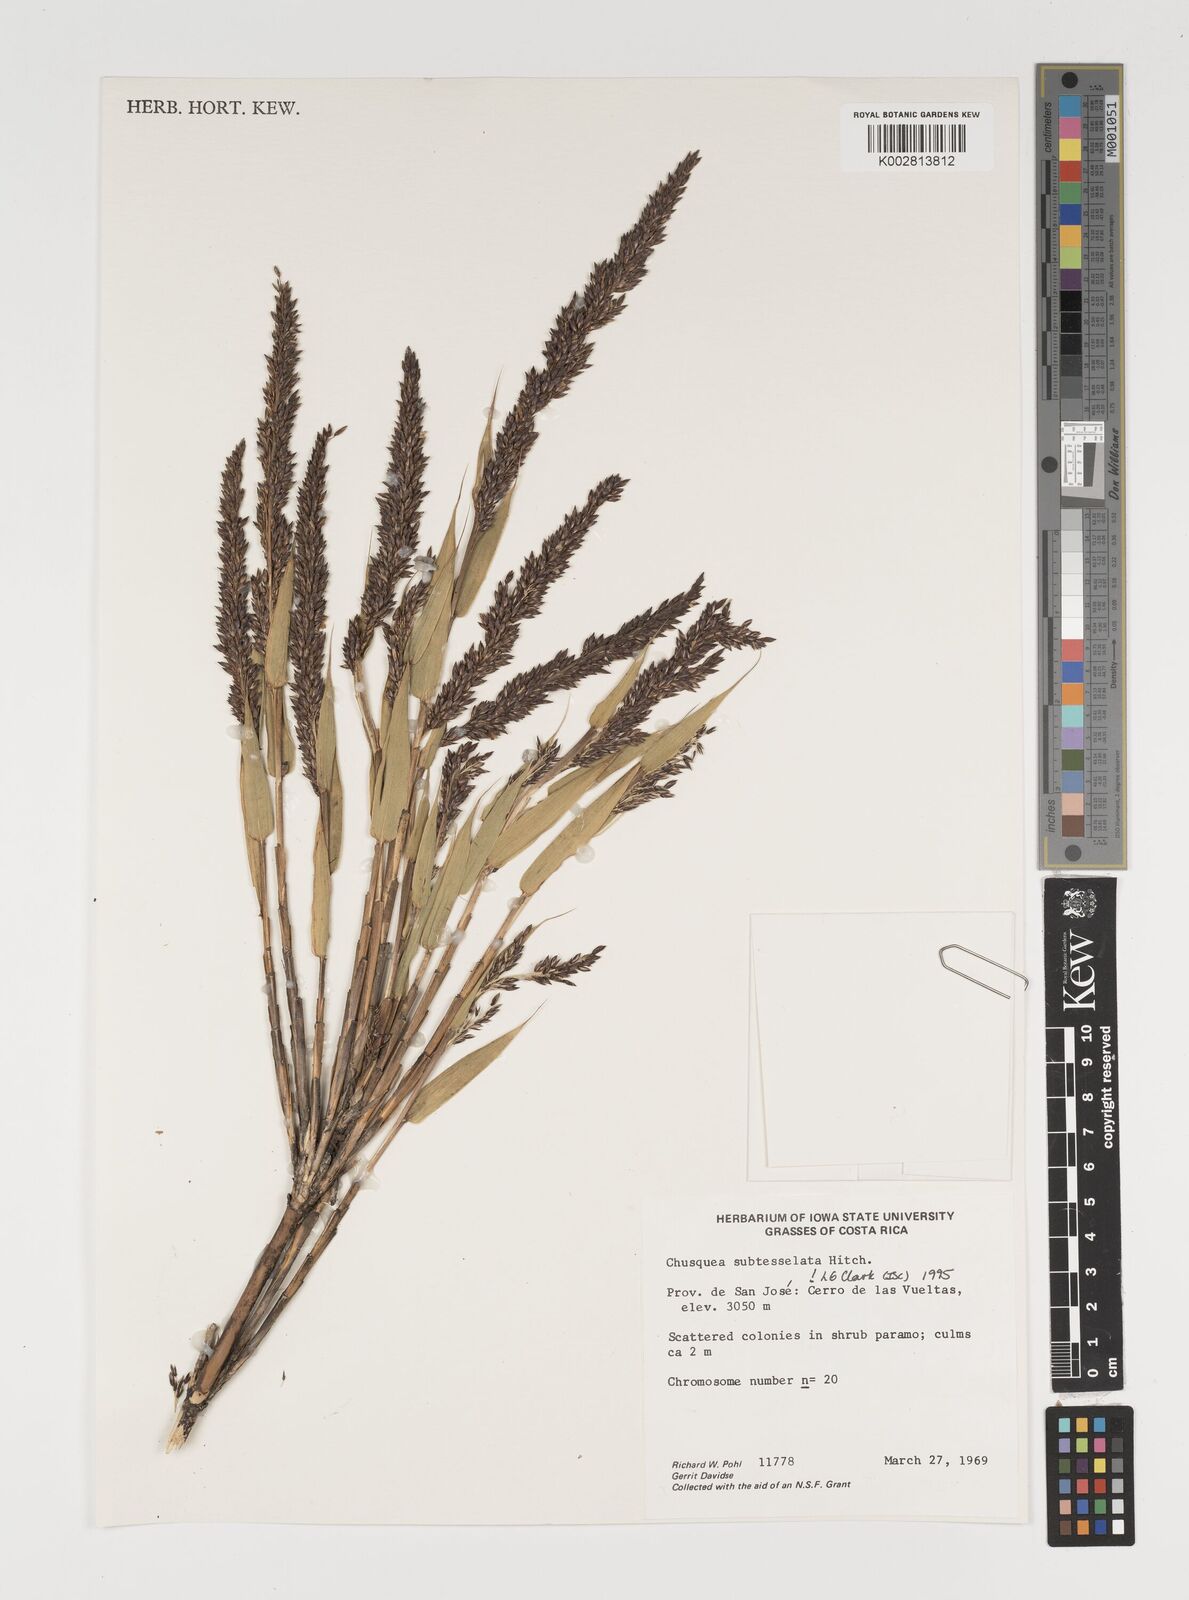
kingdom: Plantae
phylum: Tracheophyta
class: Liliopsida
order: Poales
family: Poaceae
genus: Chusquea
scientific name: Chusquea subtessellata
